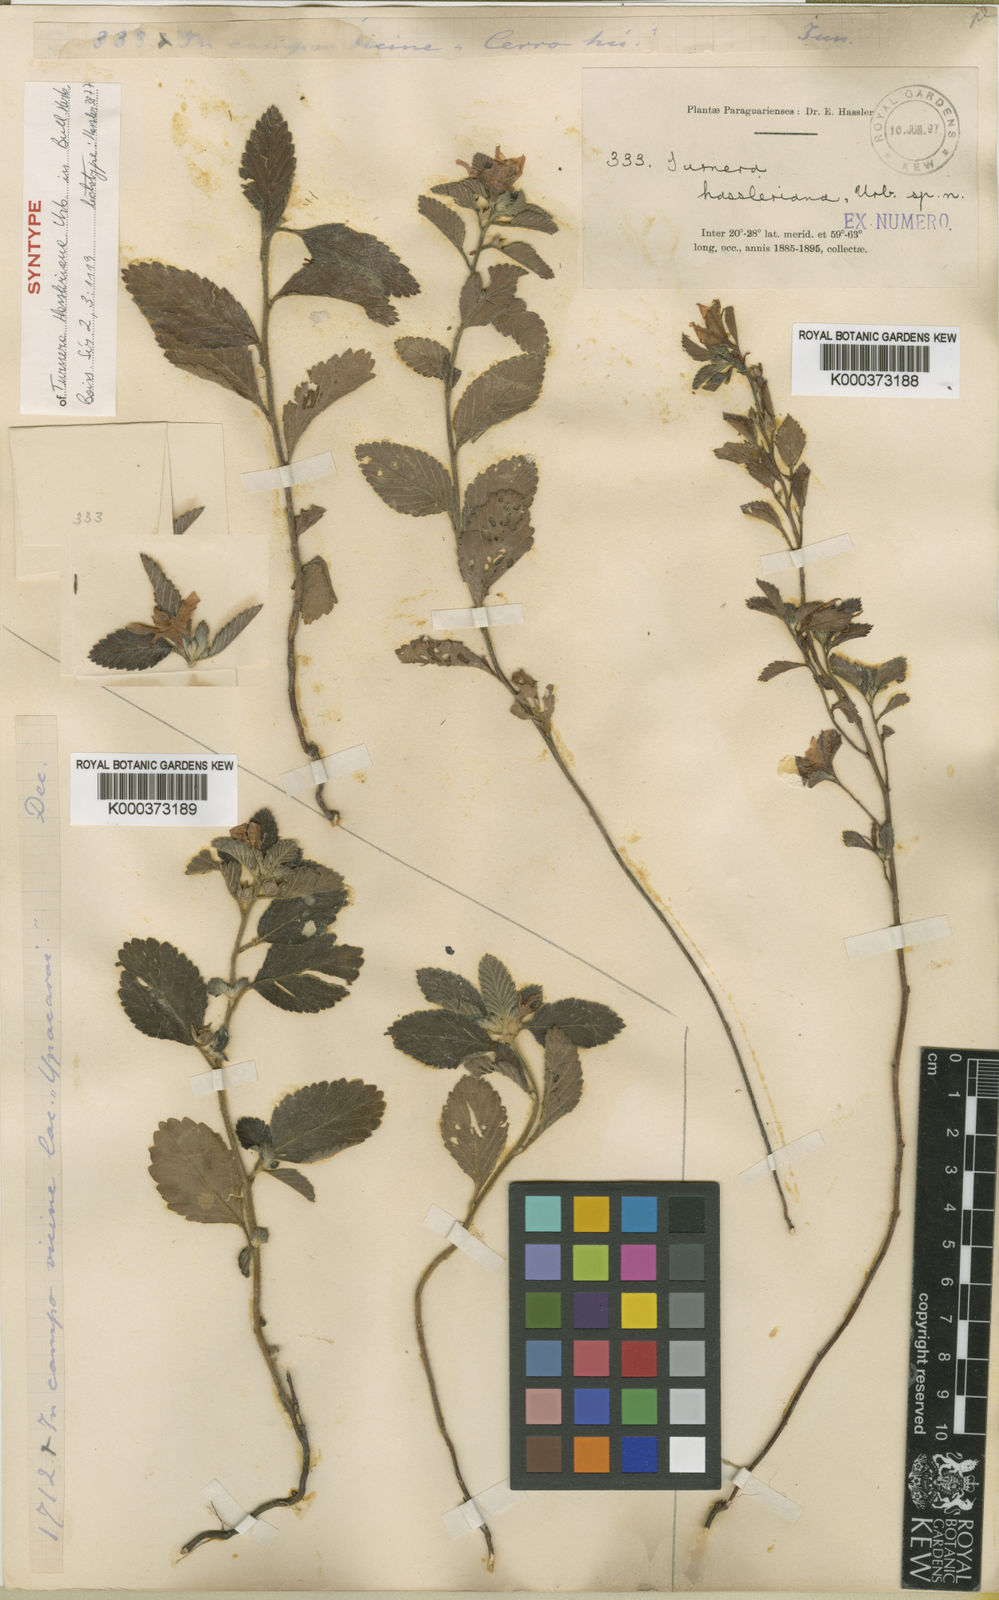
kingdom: Plantae
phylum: Tracheophyta
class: Magnoliopsida
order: Malpighiales
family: Turneraceae
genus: Turnera
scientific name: Turnera hassleriana
